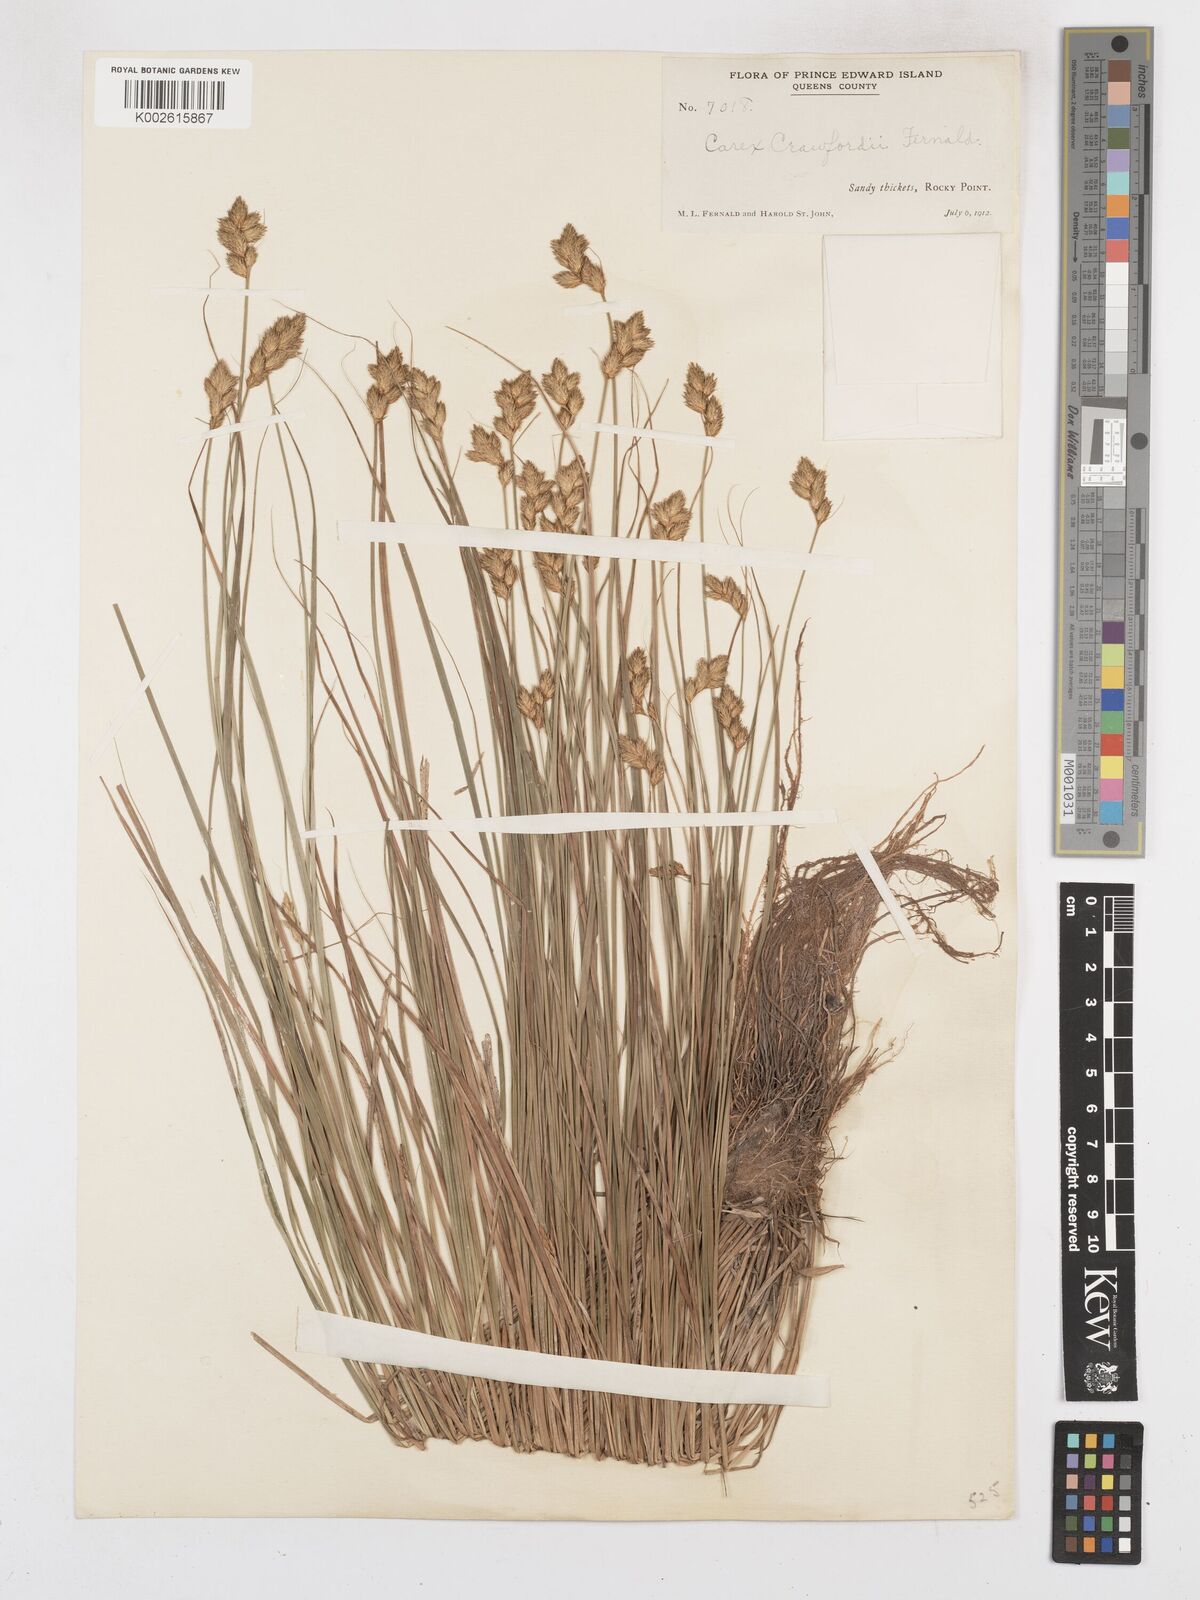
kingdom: Plantae
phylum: Tracheophyta
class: Liliopsida
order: Poales
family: Cyperaceae
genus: Carex
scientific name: Carex crawfordii
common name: Crawford's sedge
